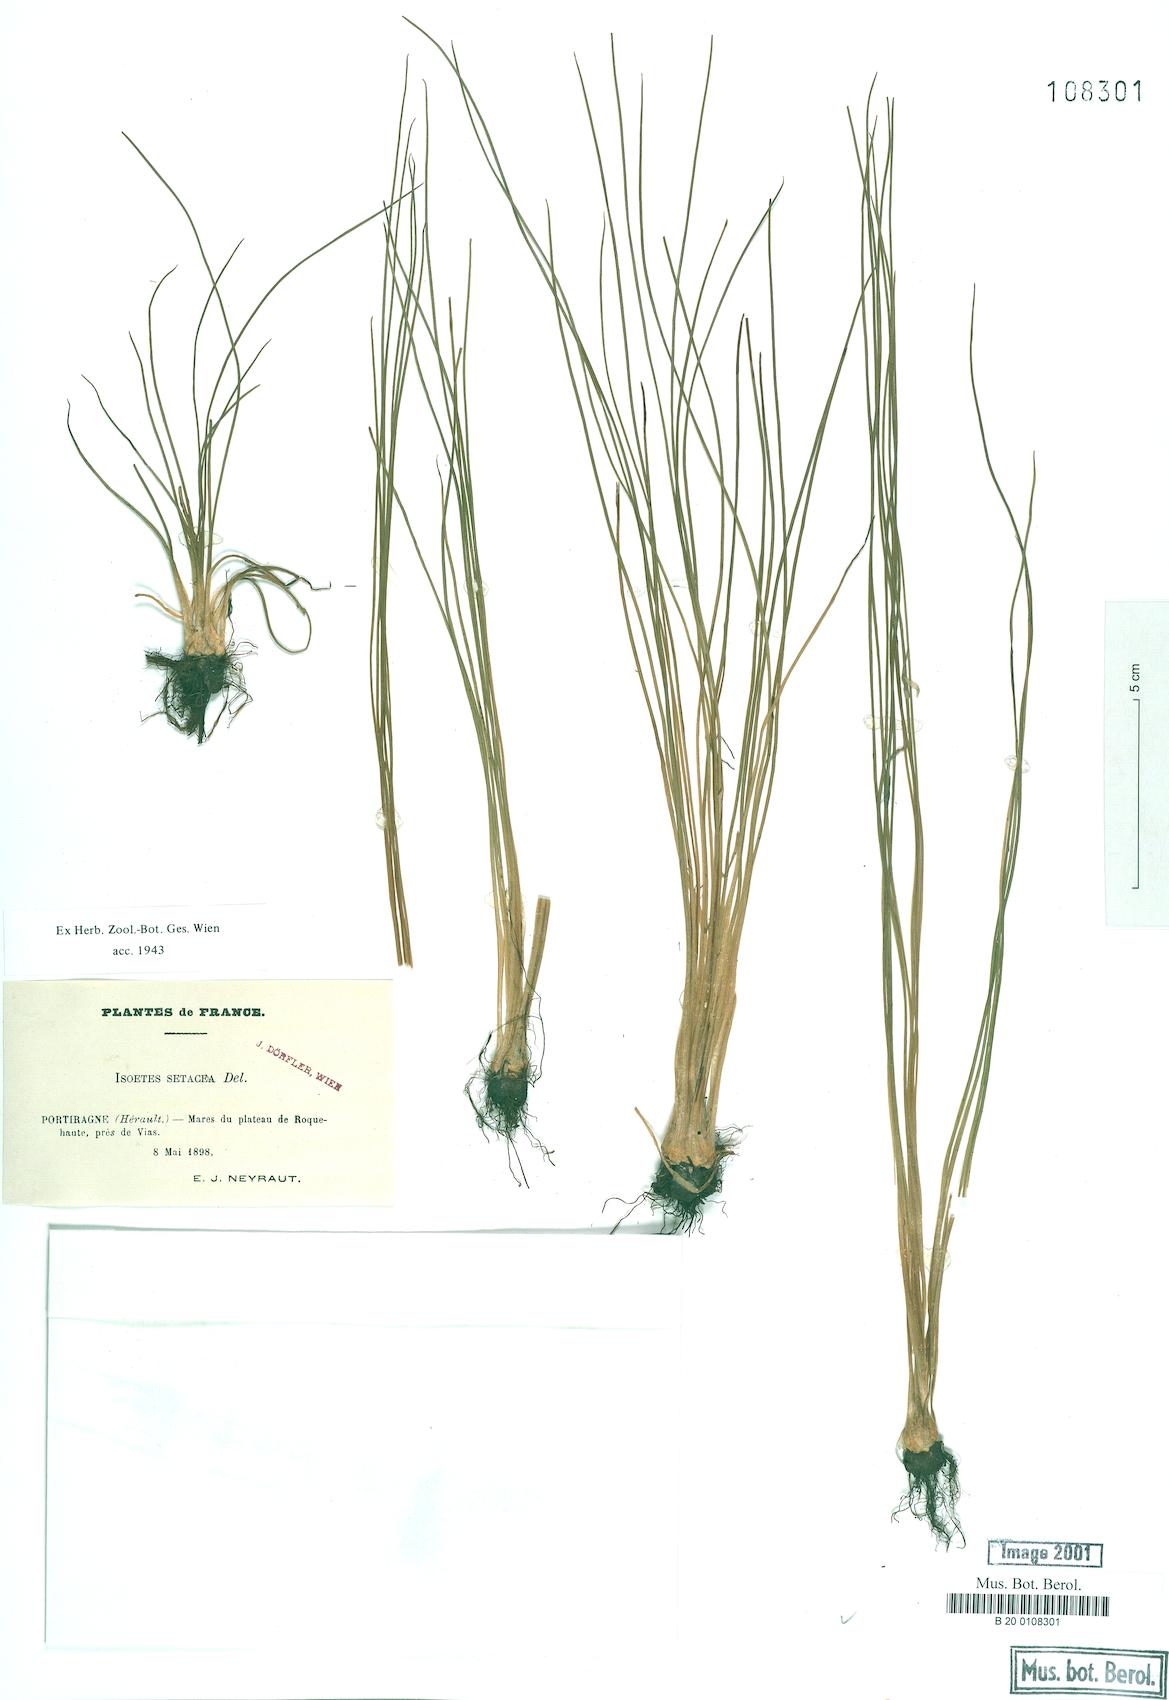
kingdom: Plantae
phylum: Tracheophyta
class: Lycopodiopsida
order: Isoetales
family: Isoetaceae
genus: Isoetes
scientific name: Isoetes lacustris
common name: Common quillwort
